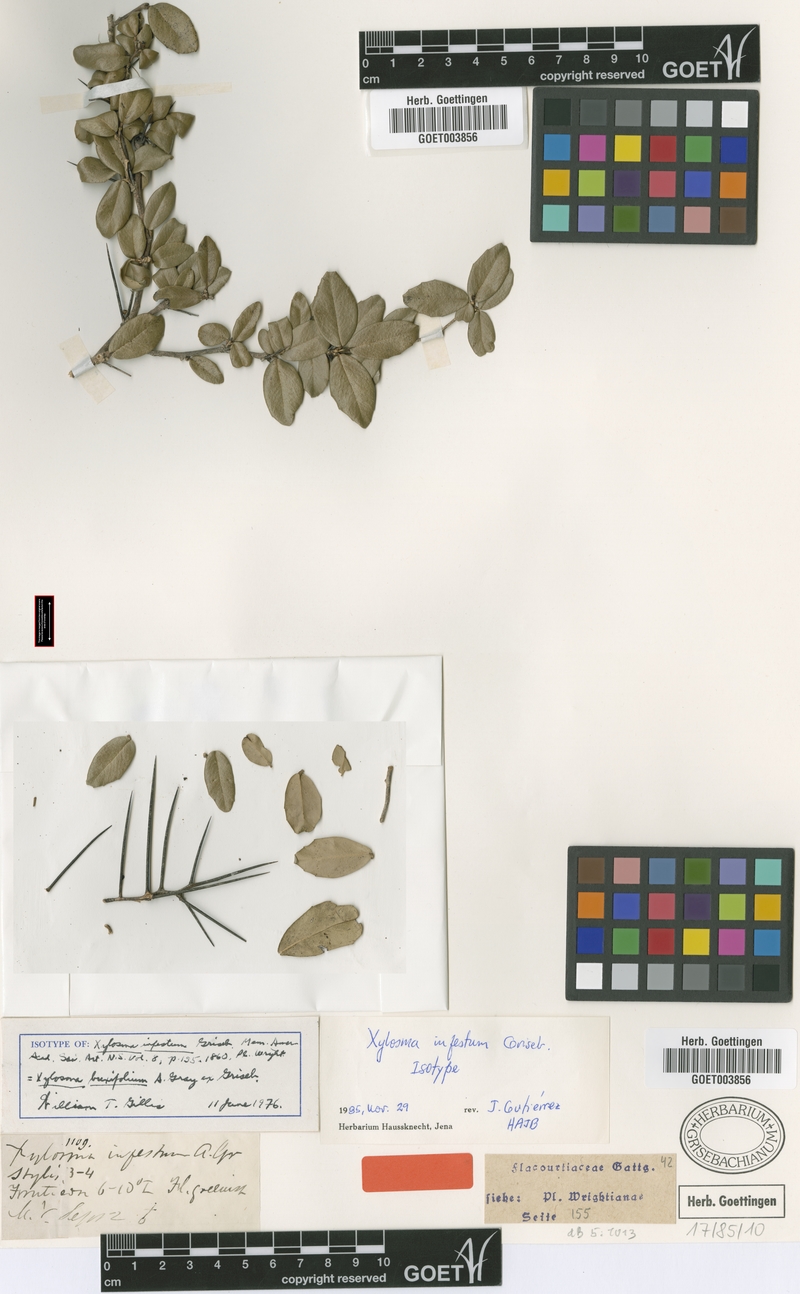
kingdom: Plantae
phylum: Tracheophyta
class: Magnoliopsida
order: Malpighiales
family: Salicaceae
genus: Xylosma
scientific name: Xylosma buxifolia
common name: Cockspur
